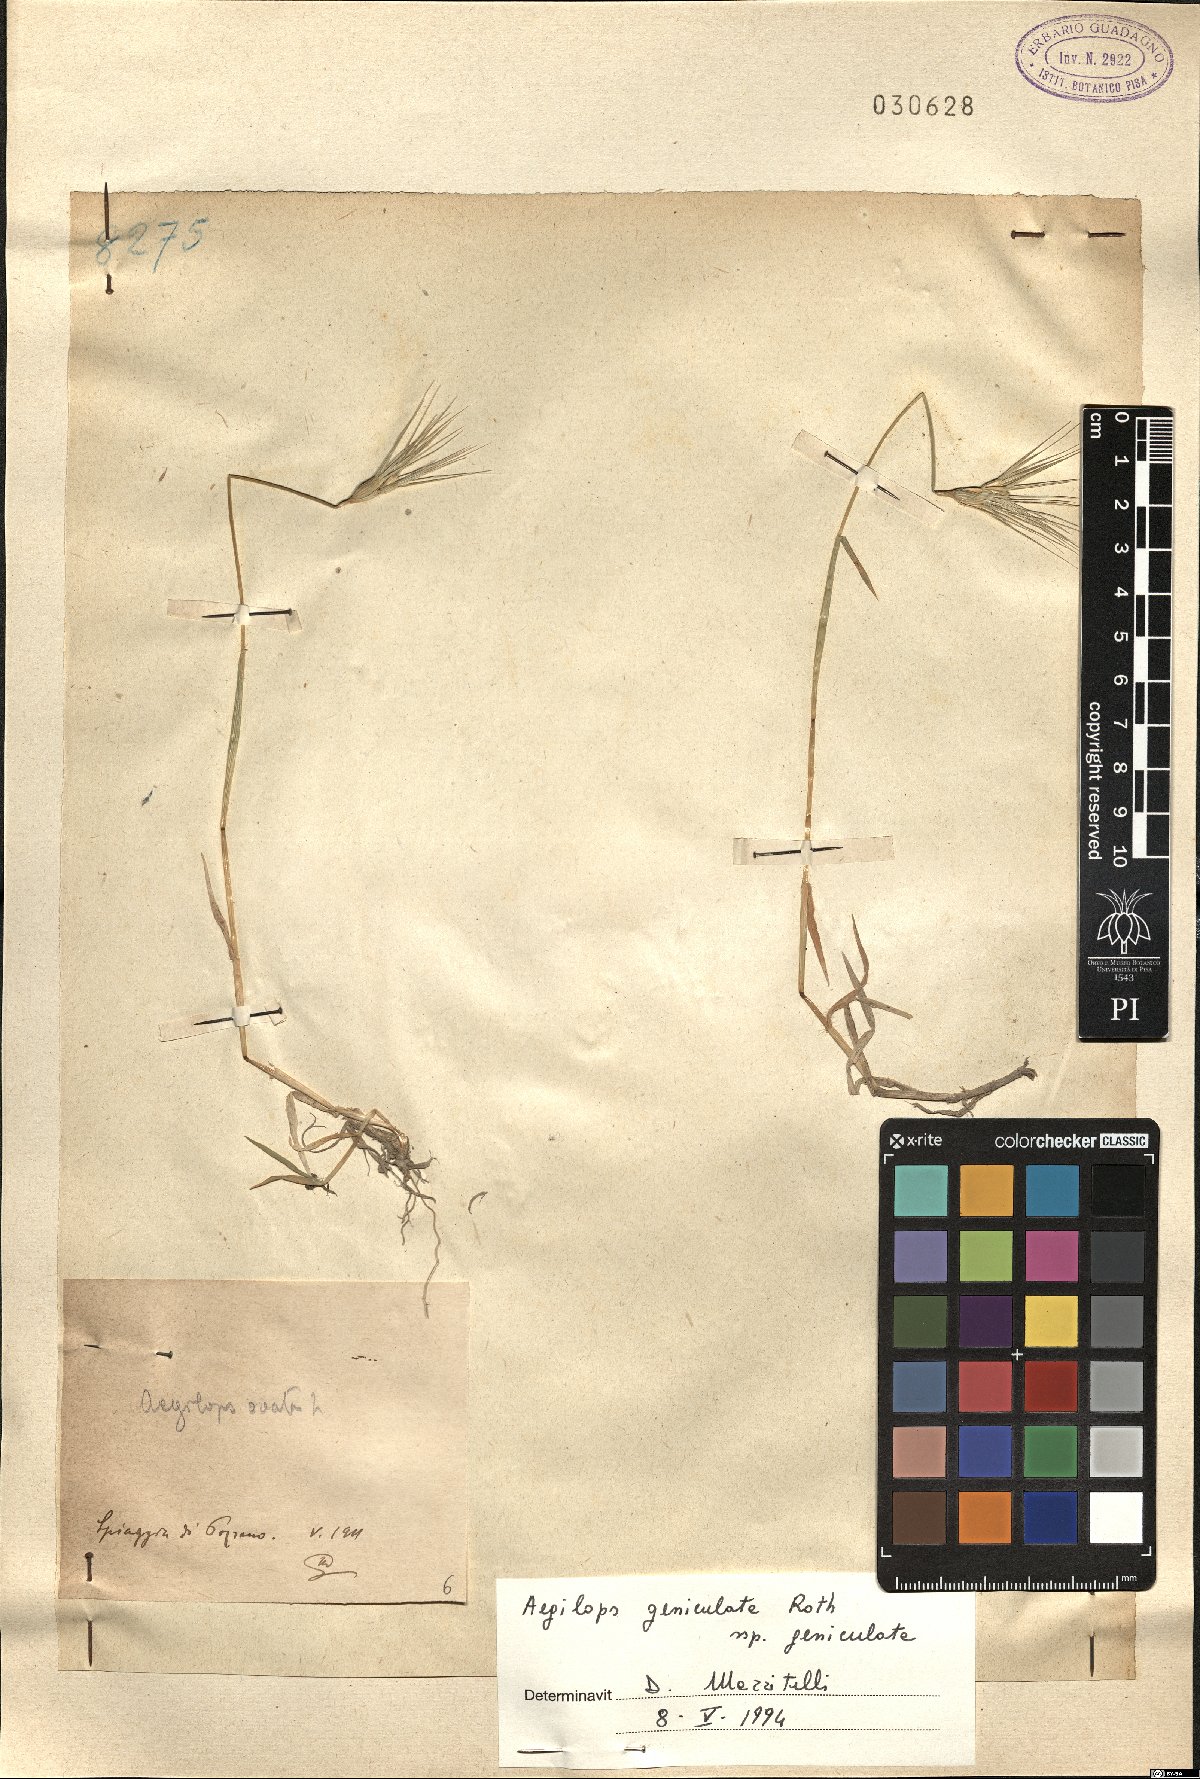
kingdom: Plantae
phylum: Tracheophyta
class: Liliopsida
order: Poales
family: Poaceae
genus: Aegilops
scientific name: Aegilops geniculata
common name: Ovate goat grass
